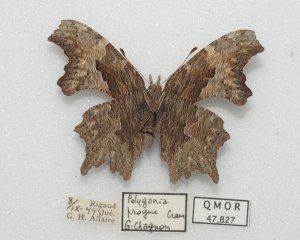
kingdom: Animalia
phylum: Arthropoda
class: Insecta
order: Lepidoptera
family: Nymphalidae
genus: Polygonia
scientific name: Polygonia progne
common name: Gray Comma
